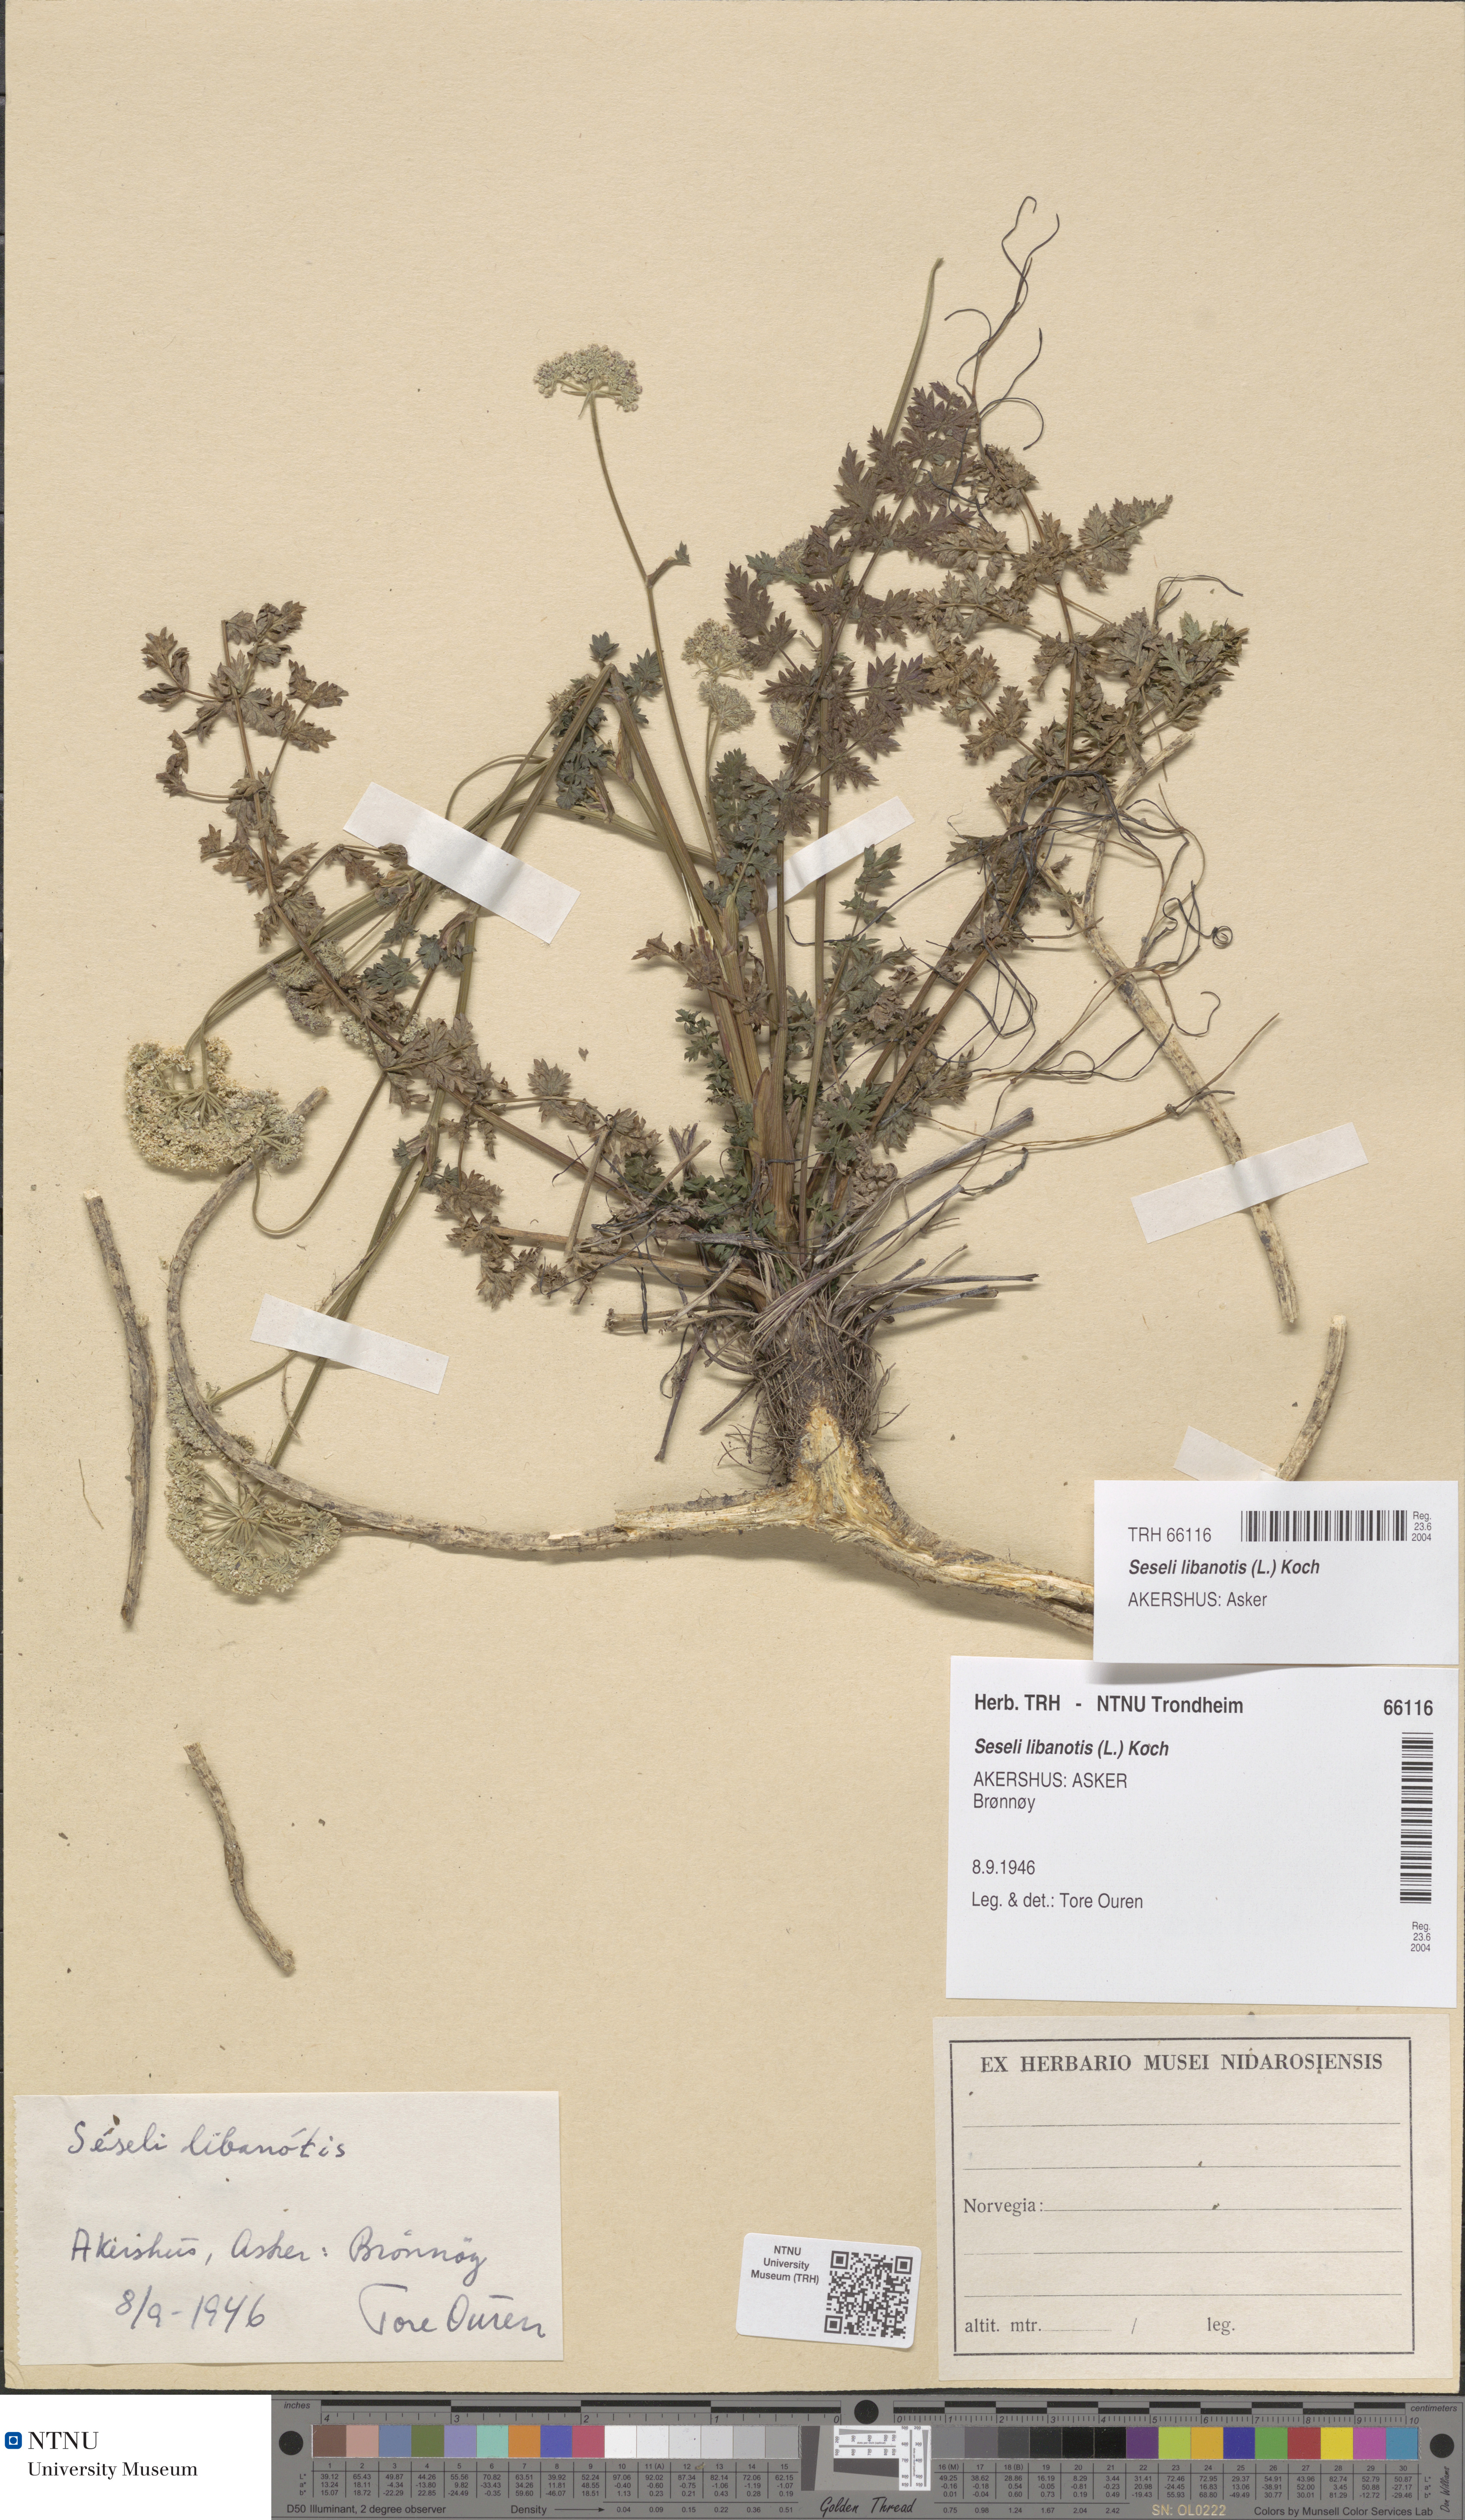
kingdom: Plantae
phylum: Tracheophyta
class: Magnoliopsida
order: Apiales
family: Apiaceae
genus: Seseli
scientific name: Seseli libanotis
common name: Mooncarrot
